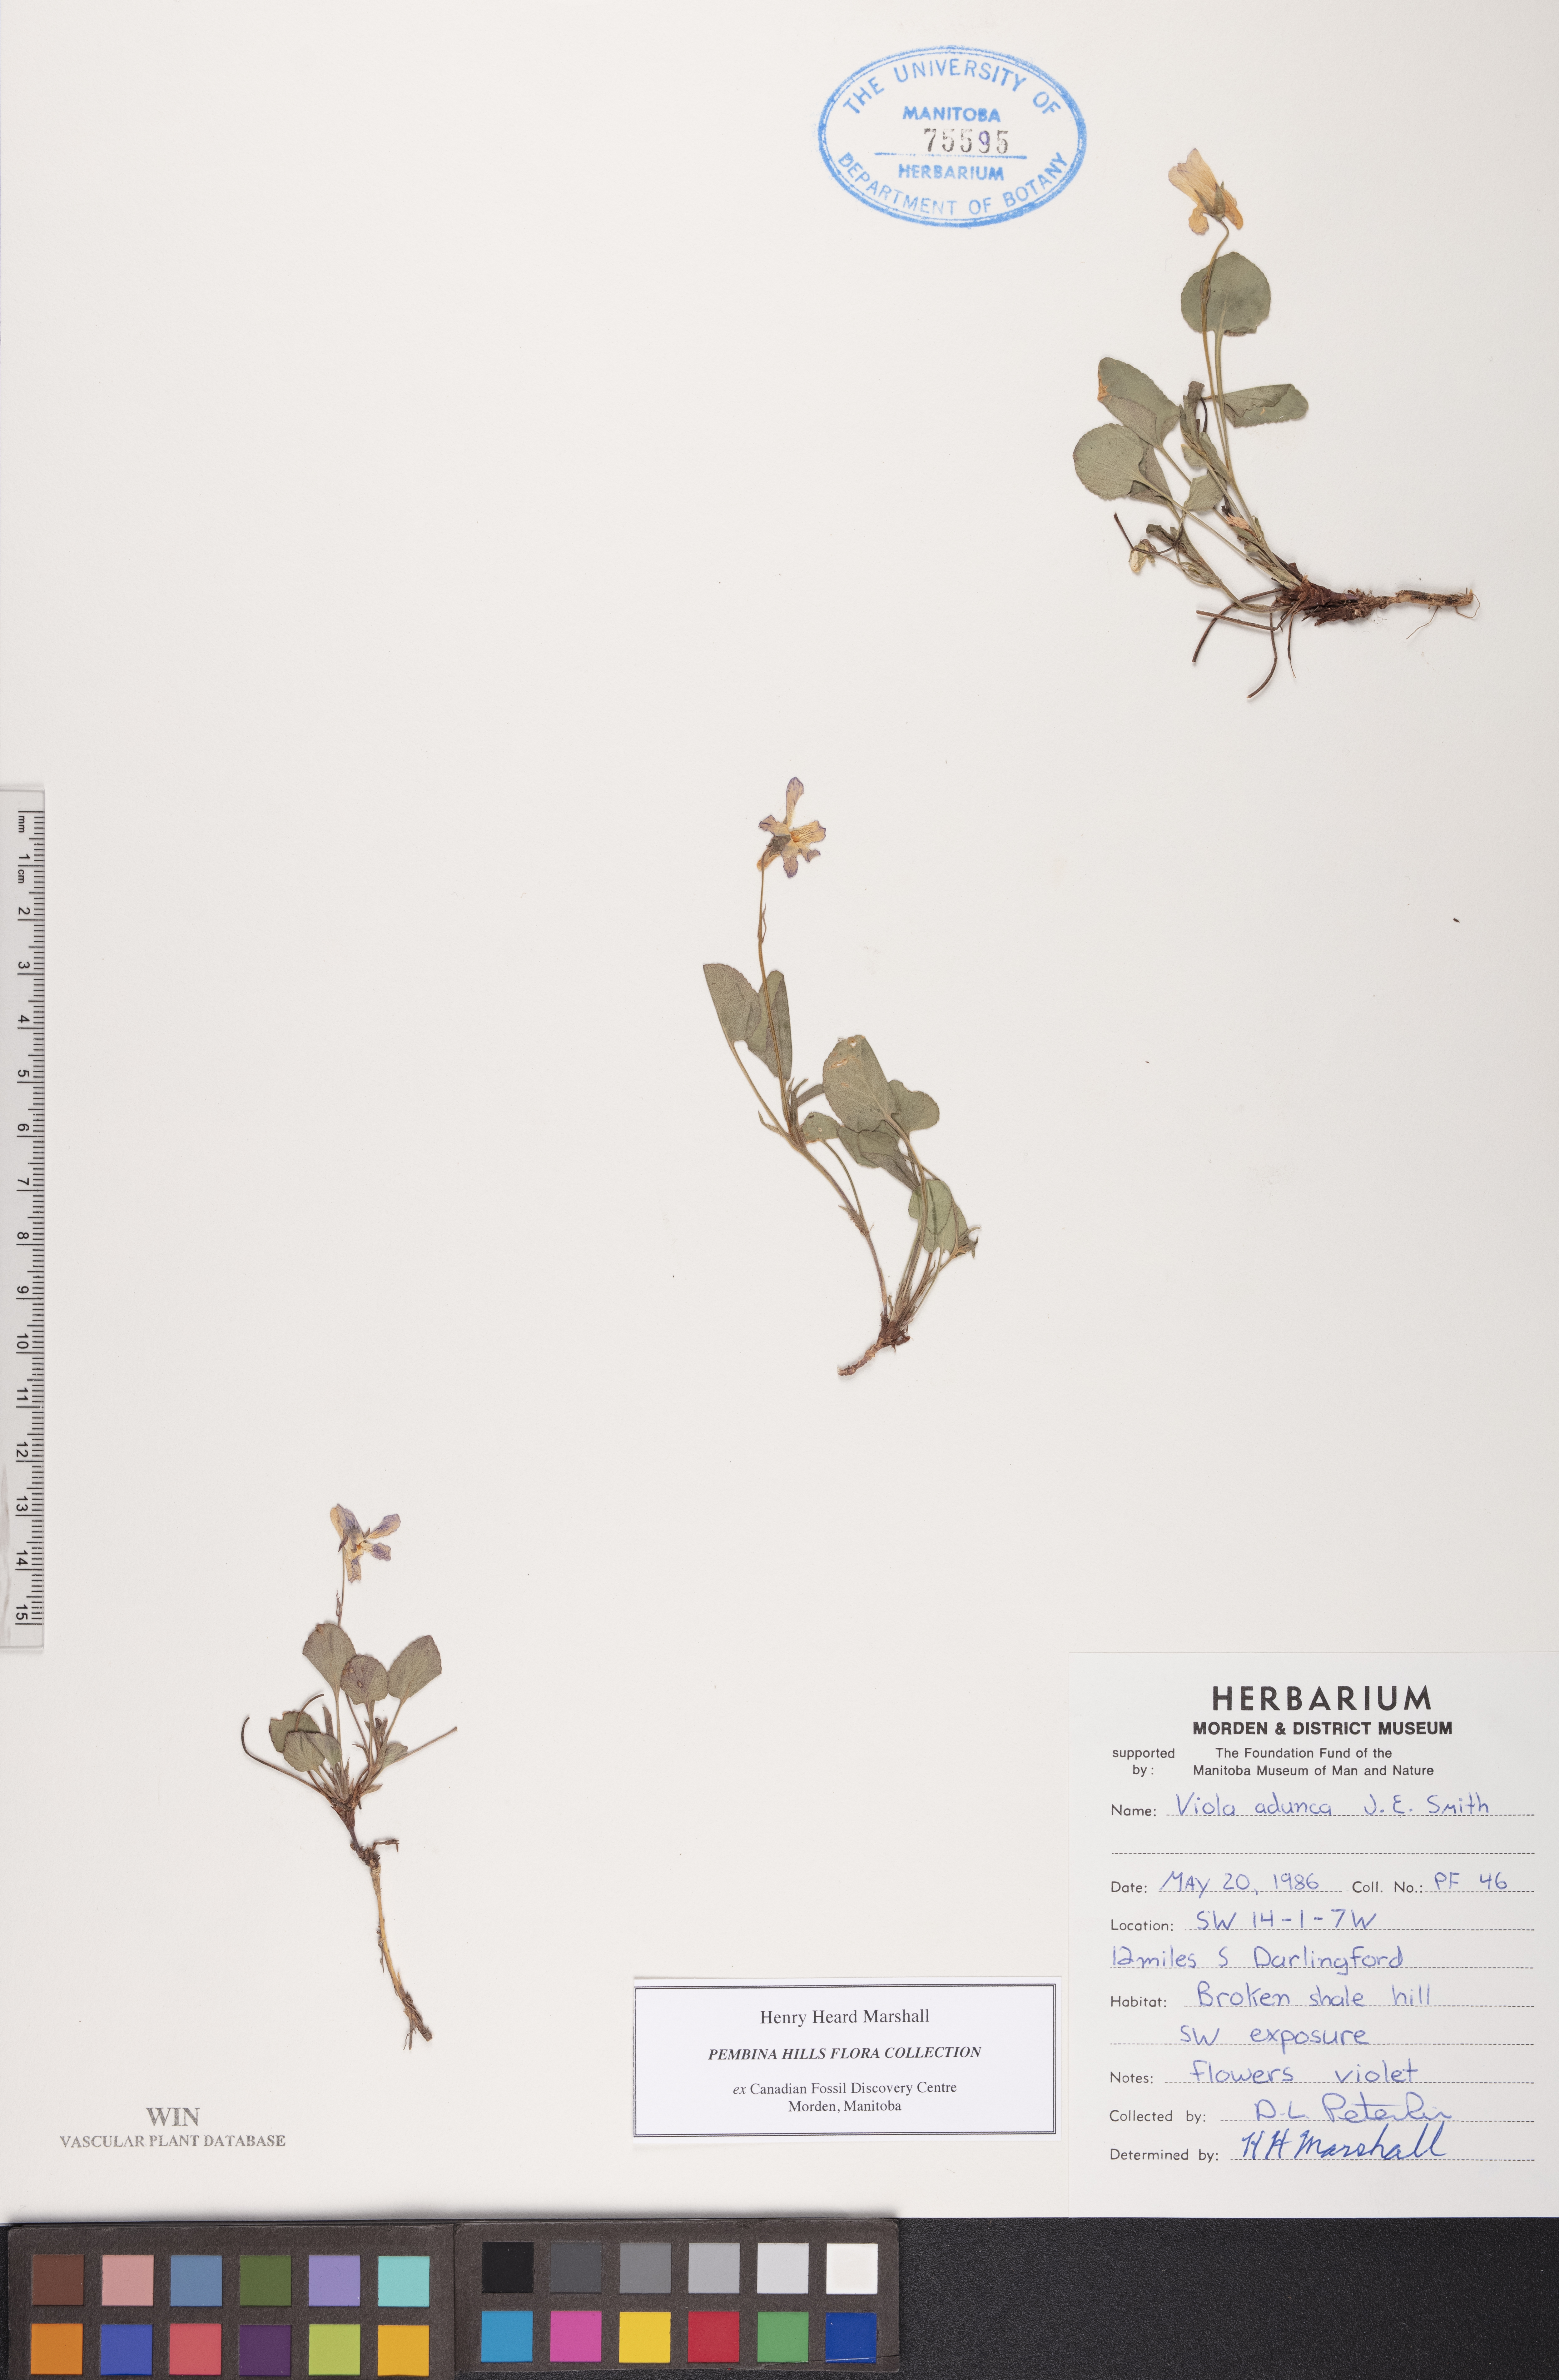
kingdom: Plantae
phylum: Tracheophyta
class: Magnoliopsida
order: Malpighiales
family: Violaceae
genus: Viola
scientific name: Viola adunca
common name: Sand violet
